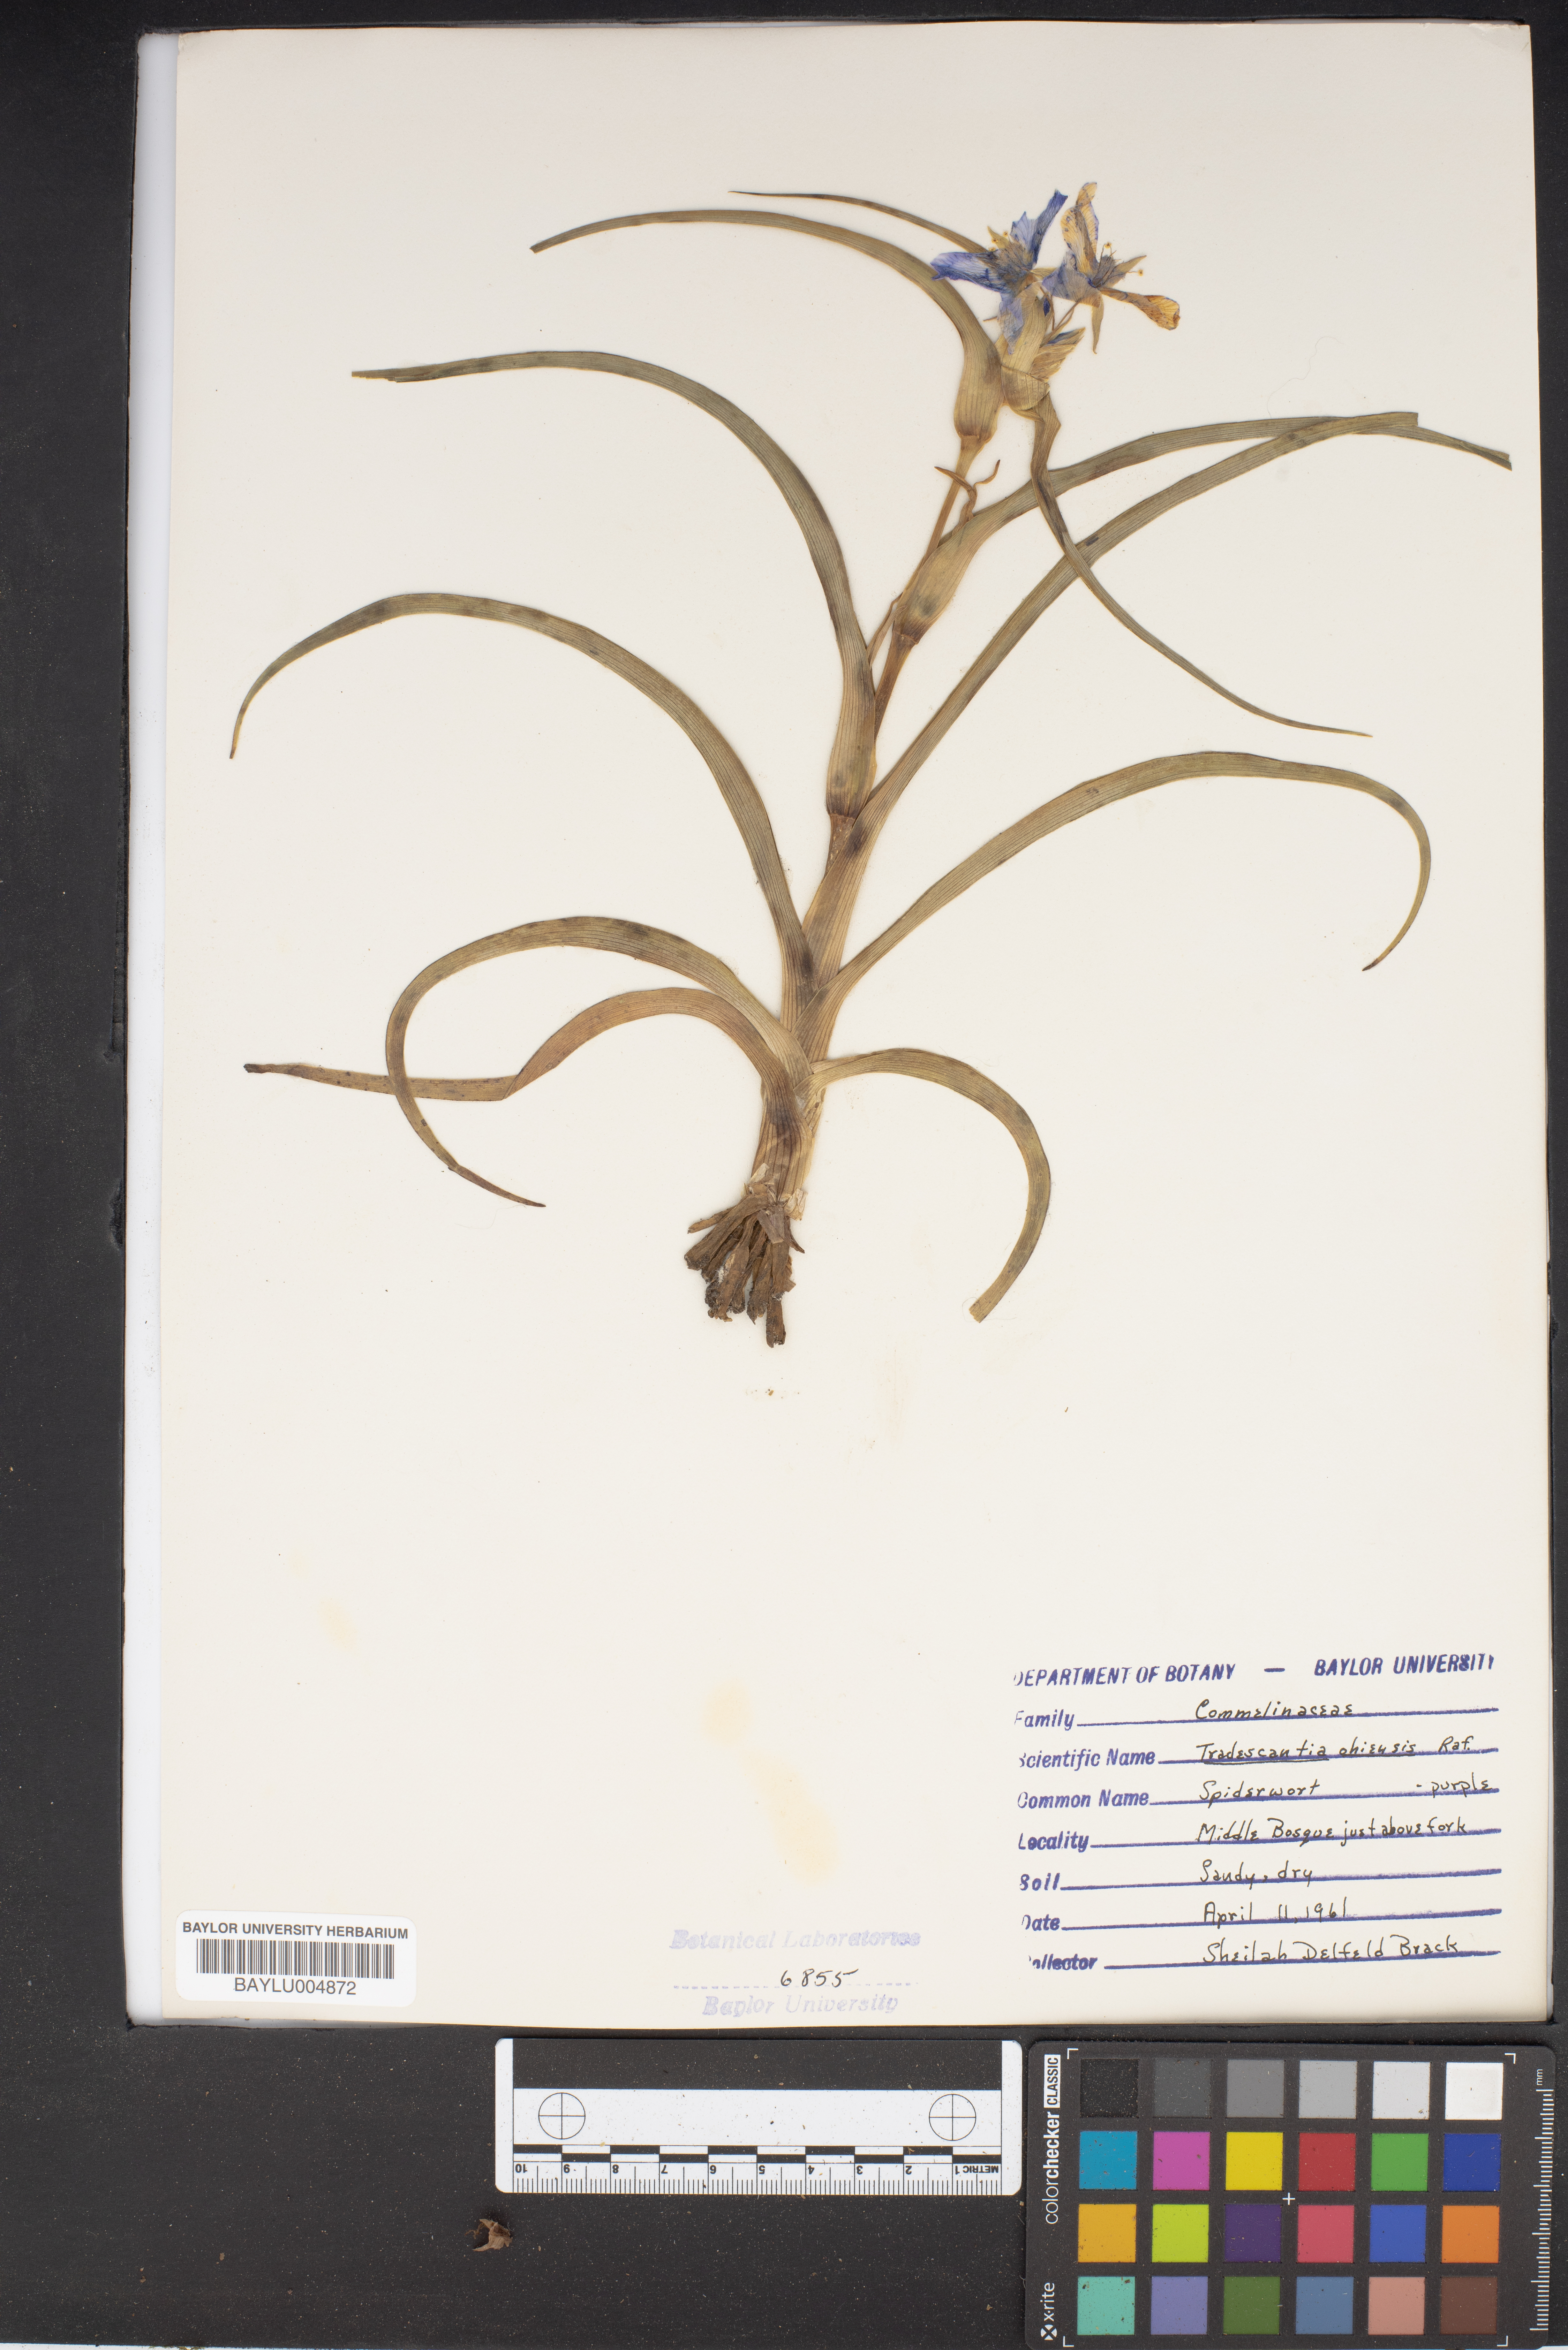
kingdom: Plantae
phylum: Tracheophyta
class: Liliopsida
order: Commelinales
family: Commelinaceae
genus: Tradescantia
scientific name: Tradescantia ohiensis
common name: Ohio spiderwort
